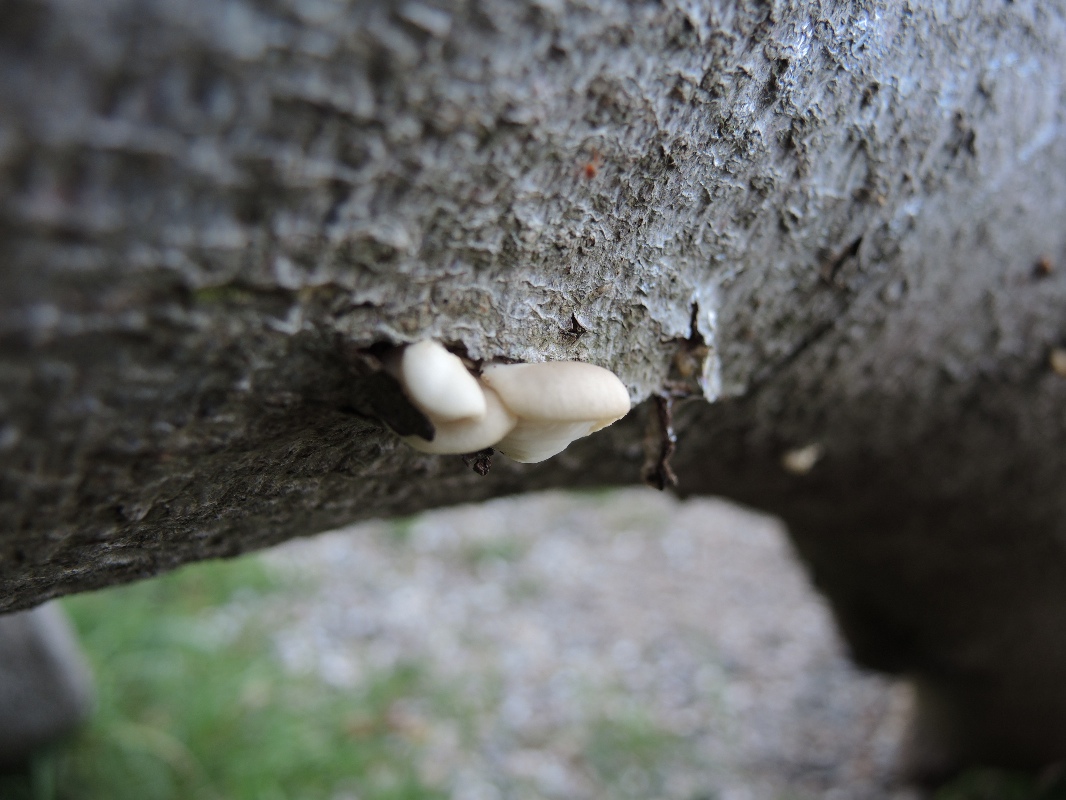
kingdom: Fungi
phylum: Basidiomycota
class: Agaricomycetes
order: Agaricales
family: Pleurotaceae
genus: Pleurotus
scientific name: Pleurotus pulmonarius
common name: sommer-østershat
